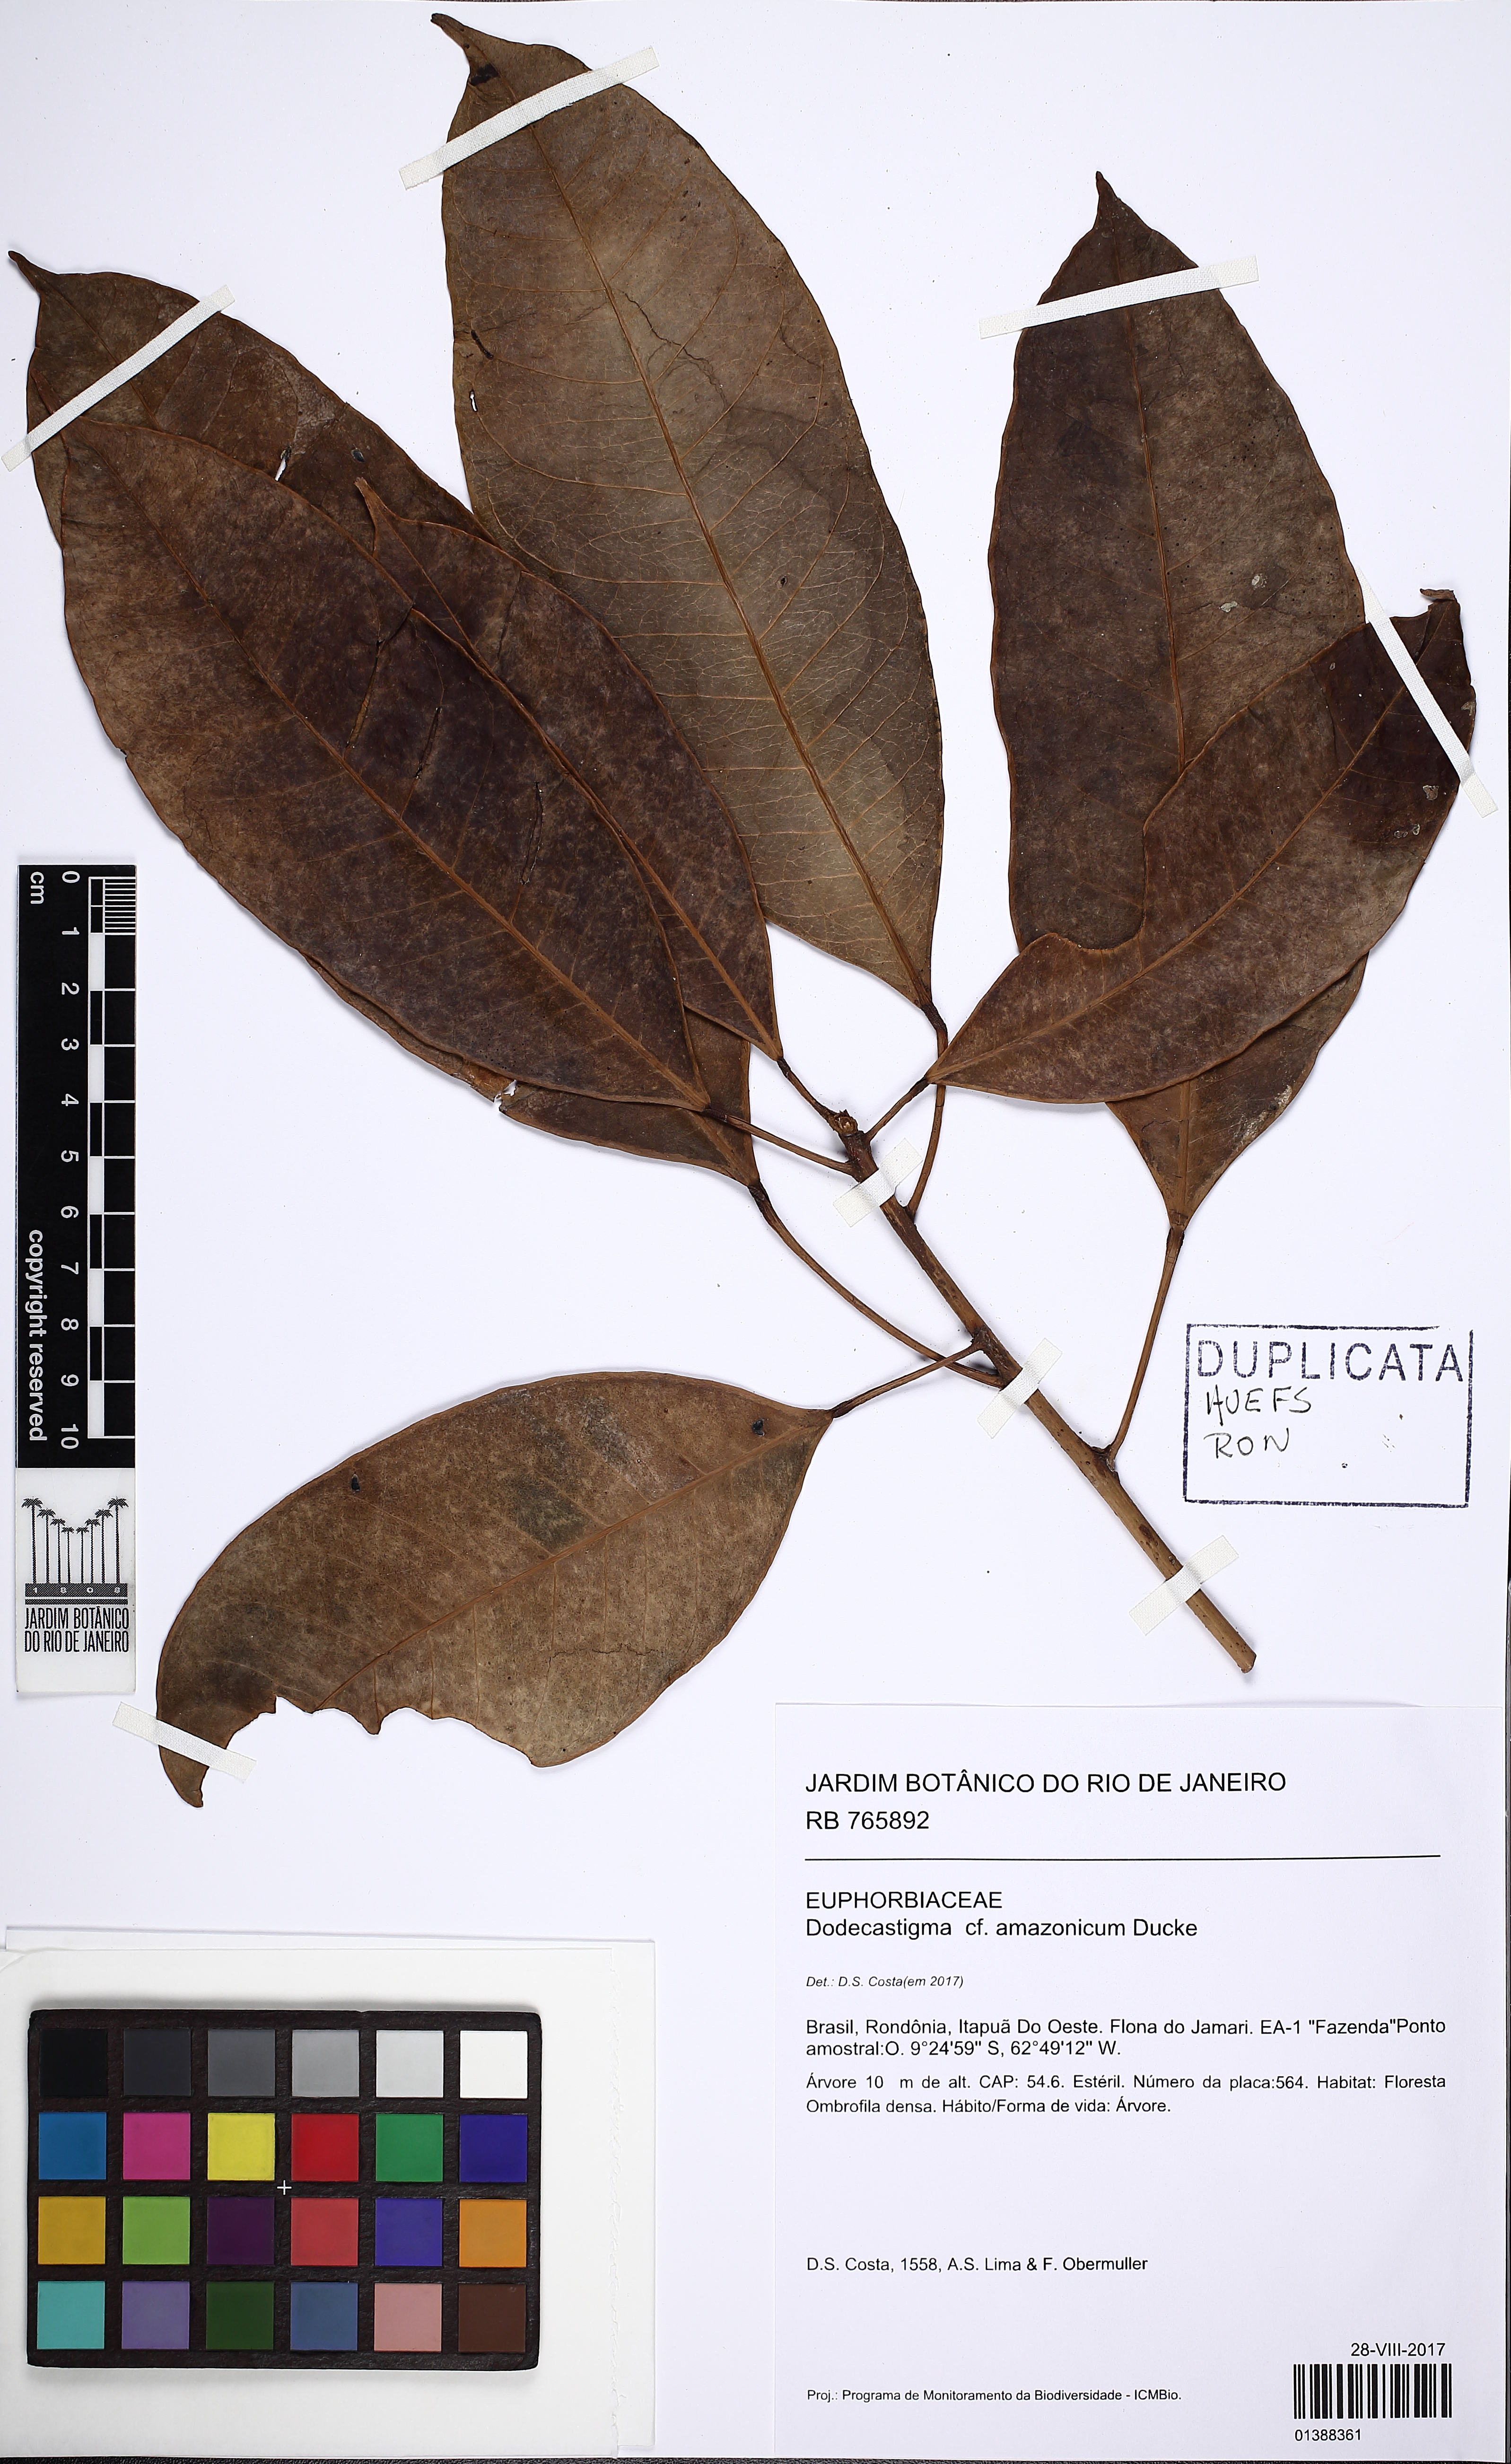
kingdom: Plantae
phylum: Tracheophyta
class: Magnoliopsida
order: Malpighiales
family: Euphorbiaceae
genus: Dodecastigma
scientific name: Dodecastigma amazonicum
